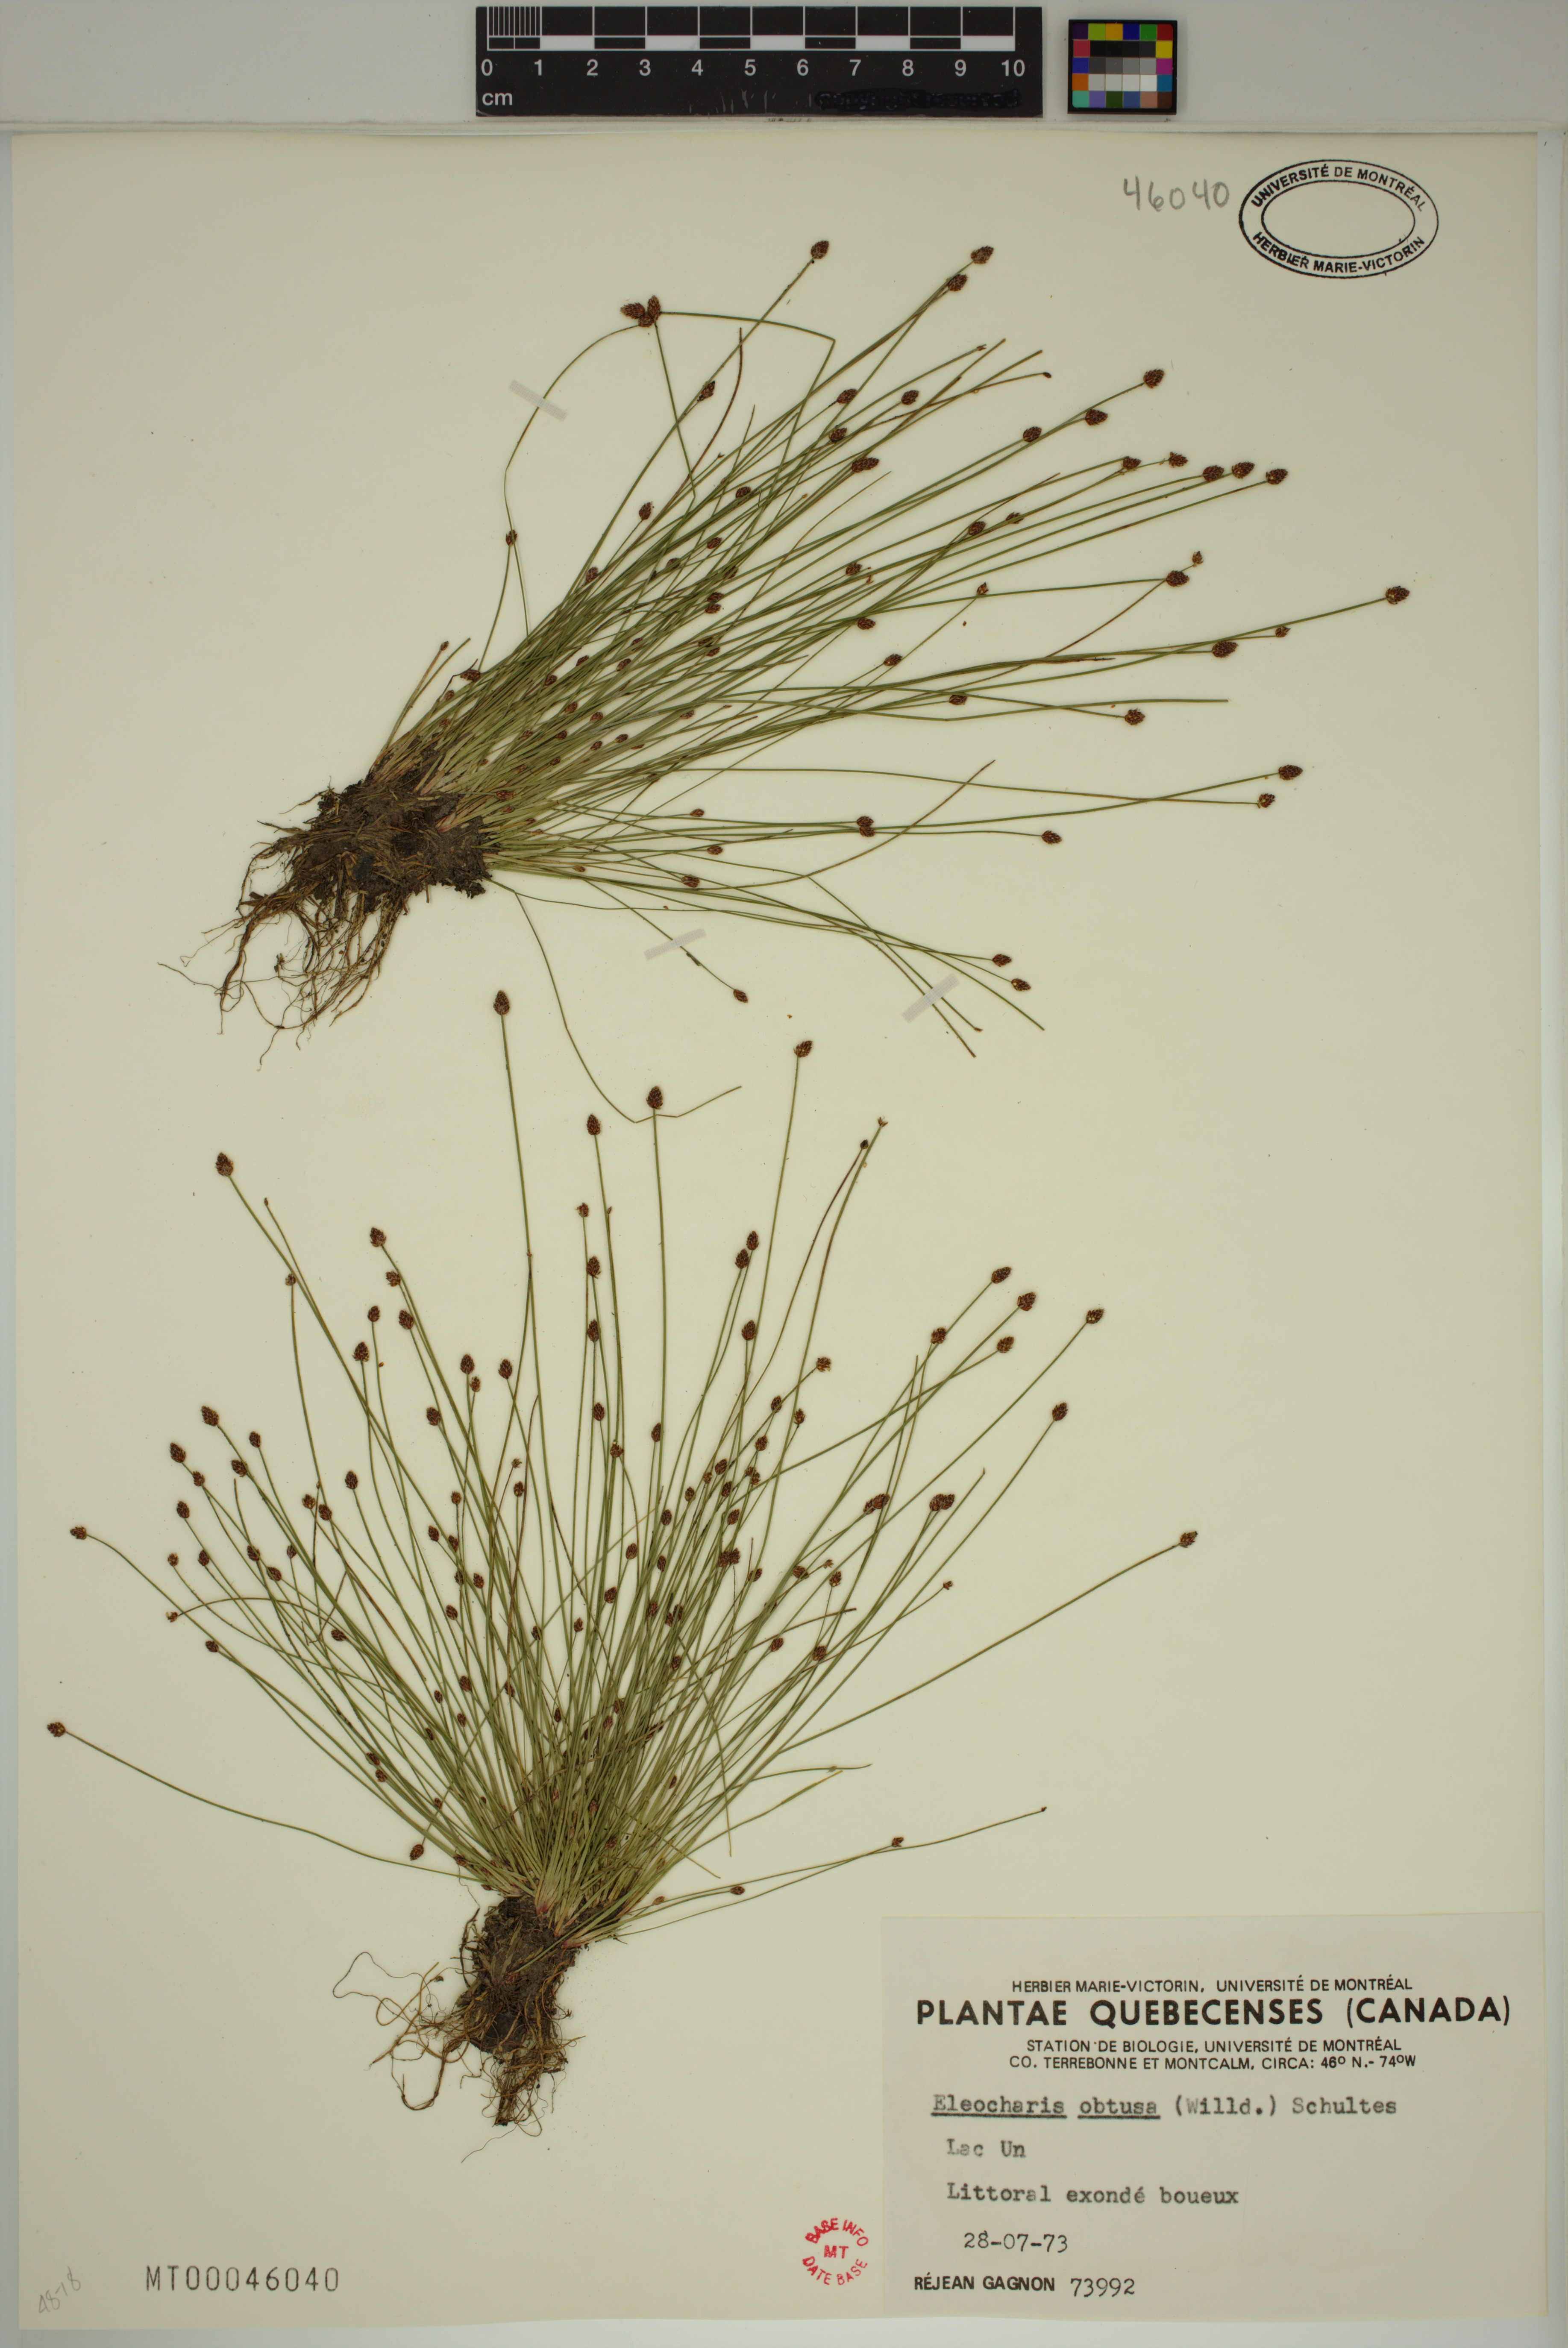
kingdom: Plantae
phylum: Tracheophyta
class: Liliopsida
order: Poales
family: Cyperaceae
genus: Eleocharis
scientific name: Eleocharis obtusa
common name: Blunt spikerush
